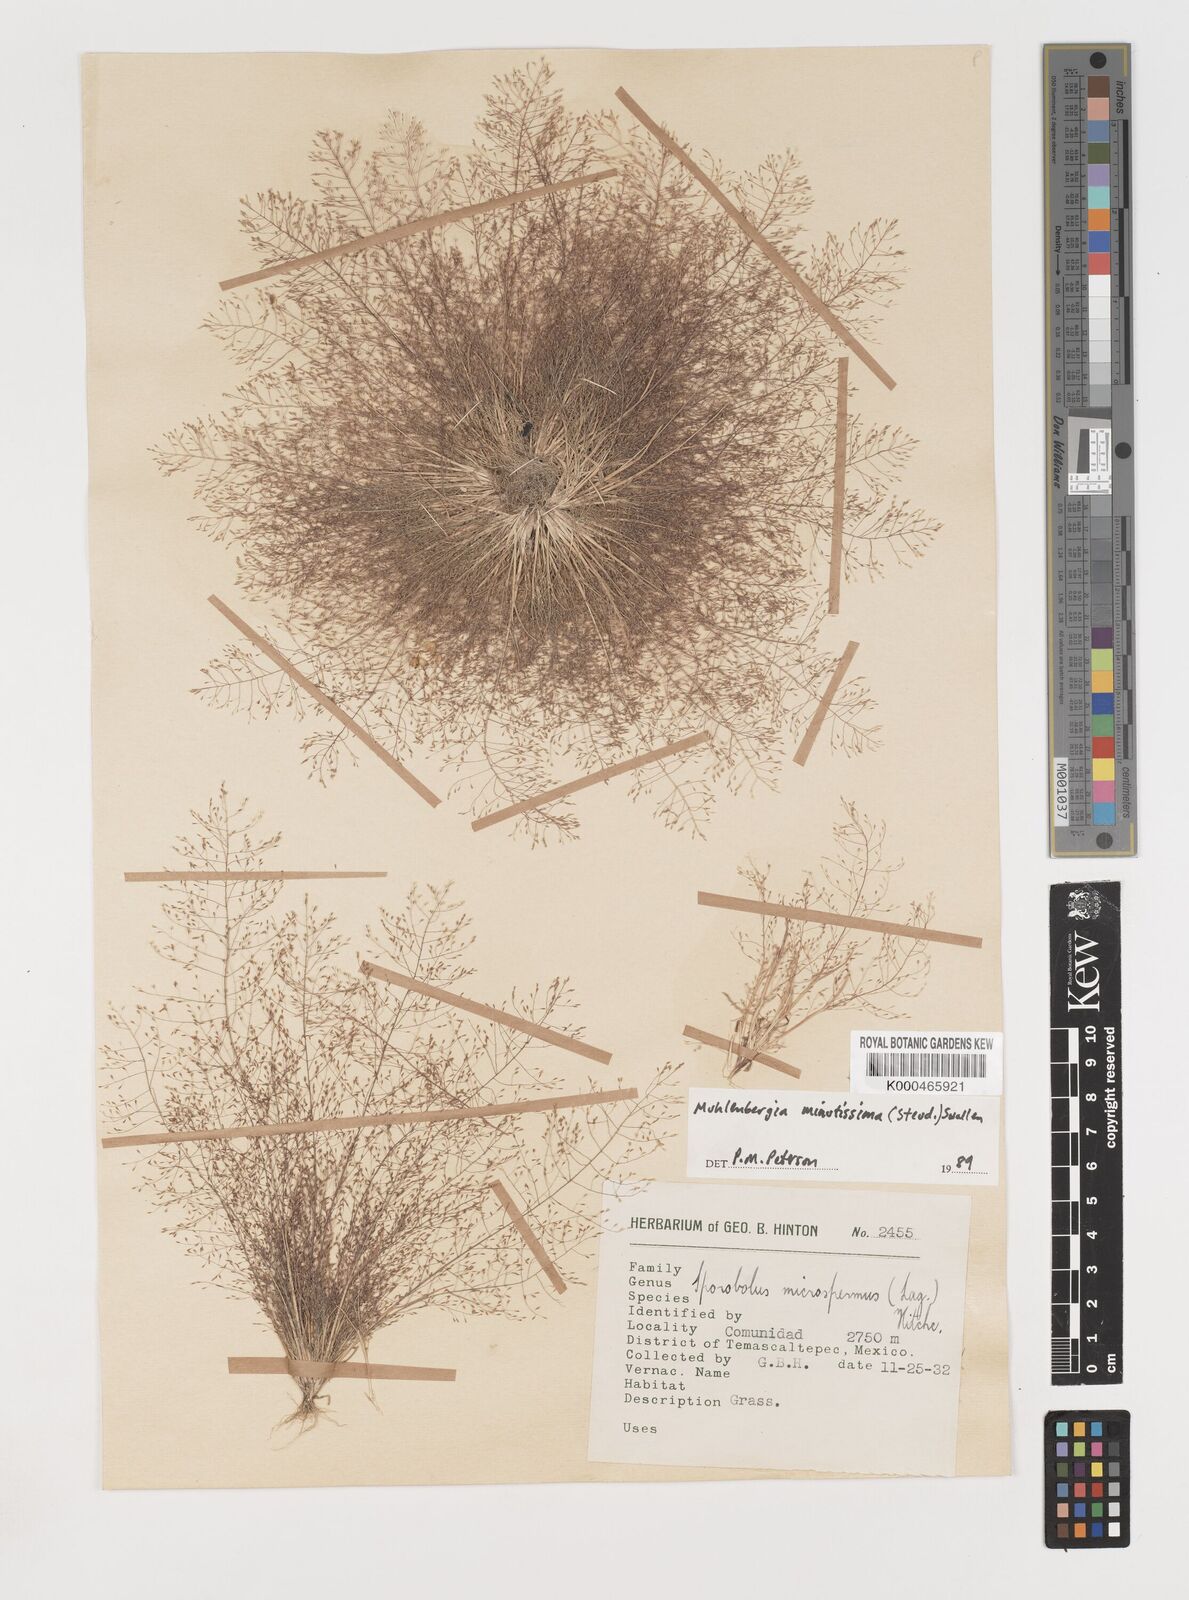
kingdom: Plantae
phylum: Tracheophyta
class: Liliopsida
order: Poales
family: Poaceae
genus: Muhlenbergia
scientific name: Muhlenbergia minutissima
